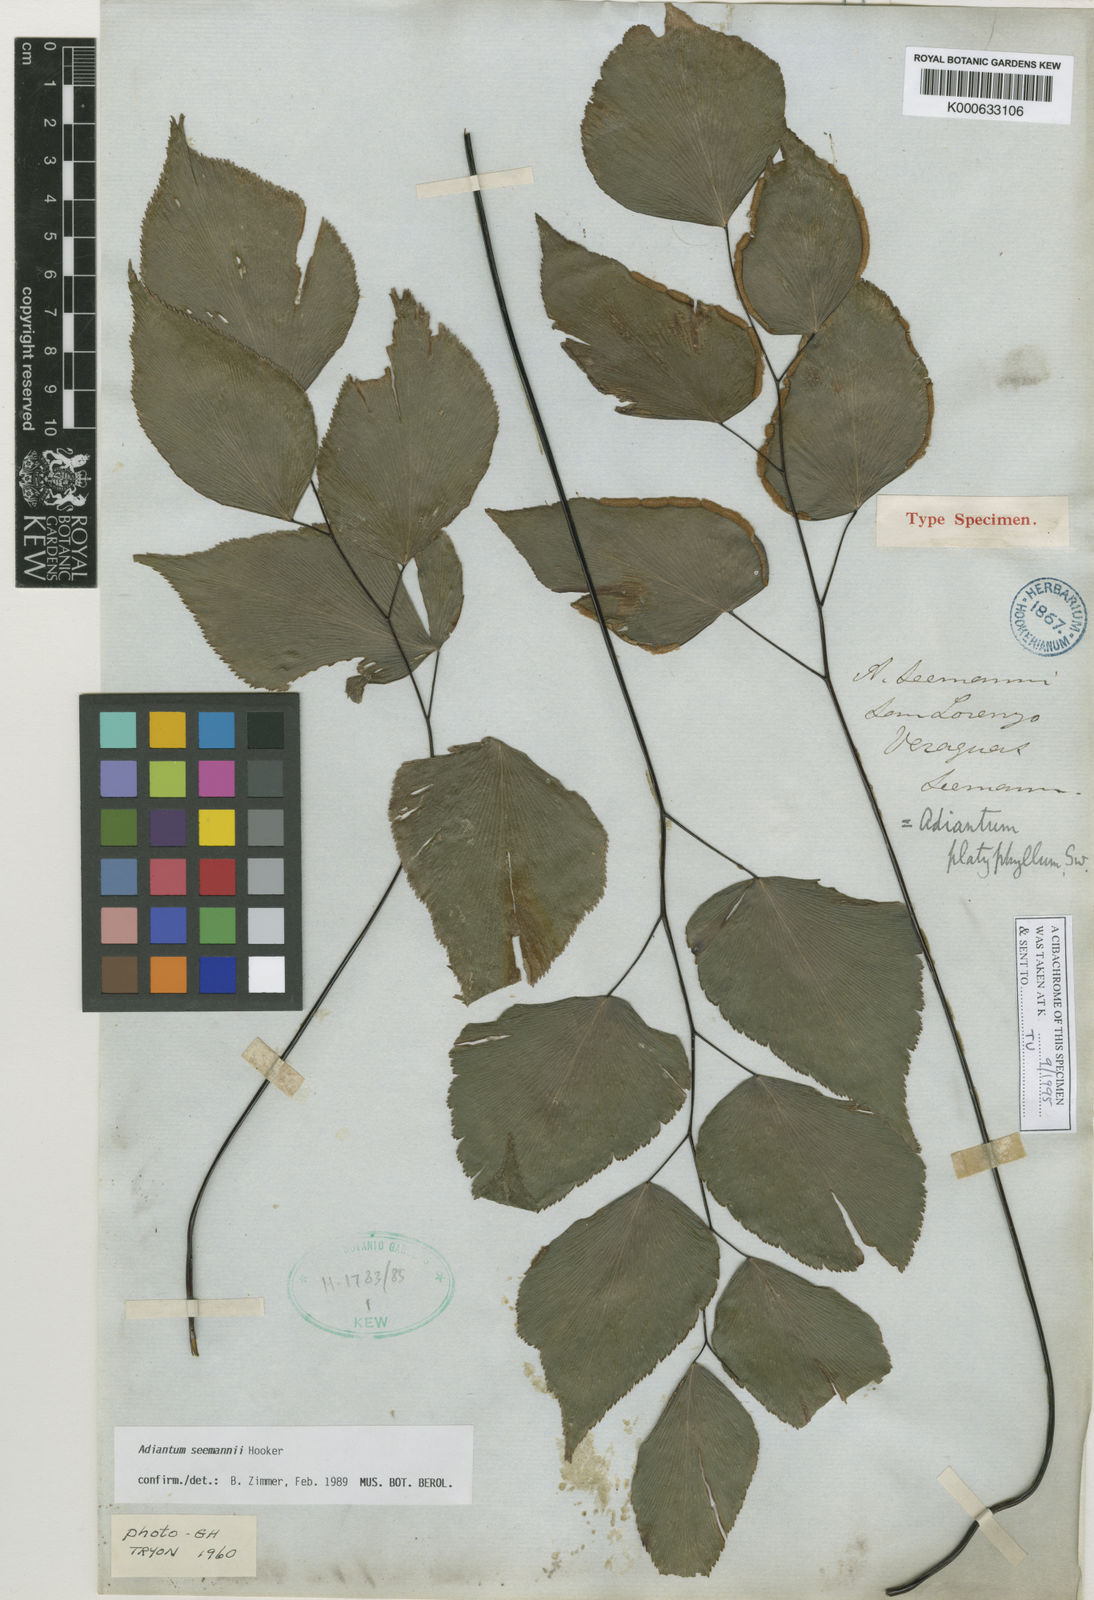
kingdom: Plantae
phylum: Tracheophyta
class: Polypodiopsida
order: Polypodiales
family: Pteridaceae
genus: Adiantum
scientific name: Adiantum platyphyllum
